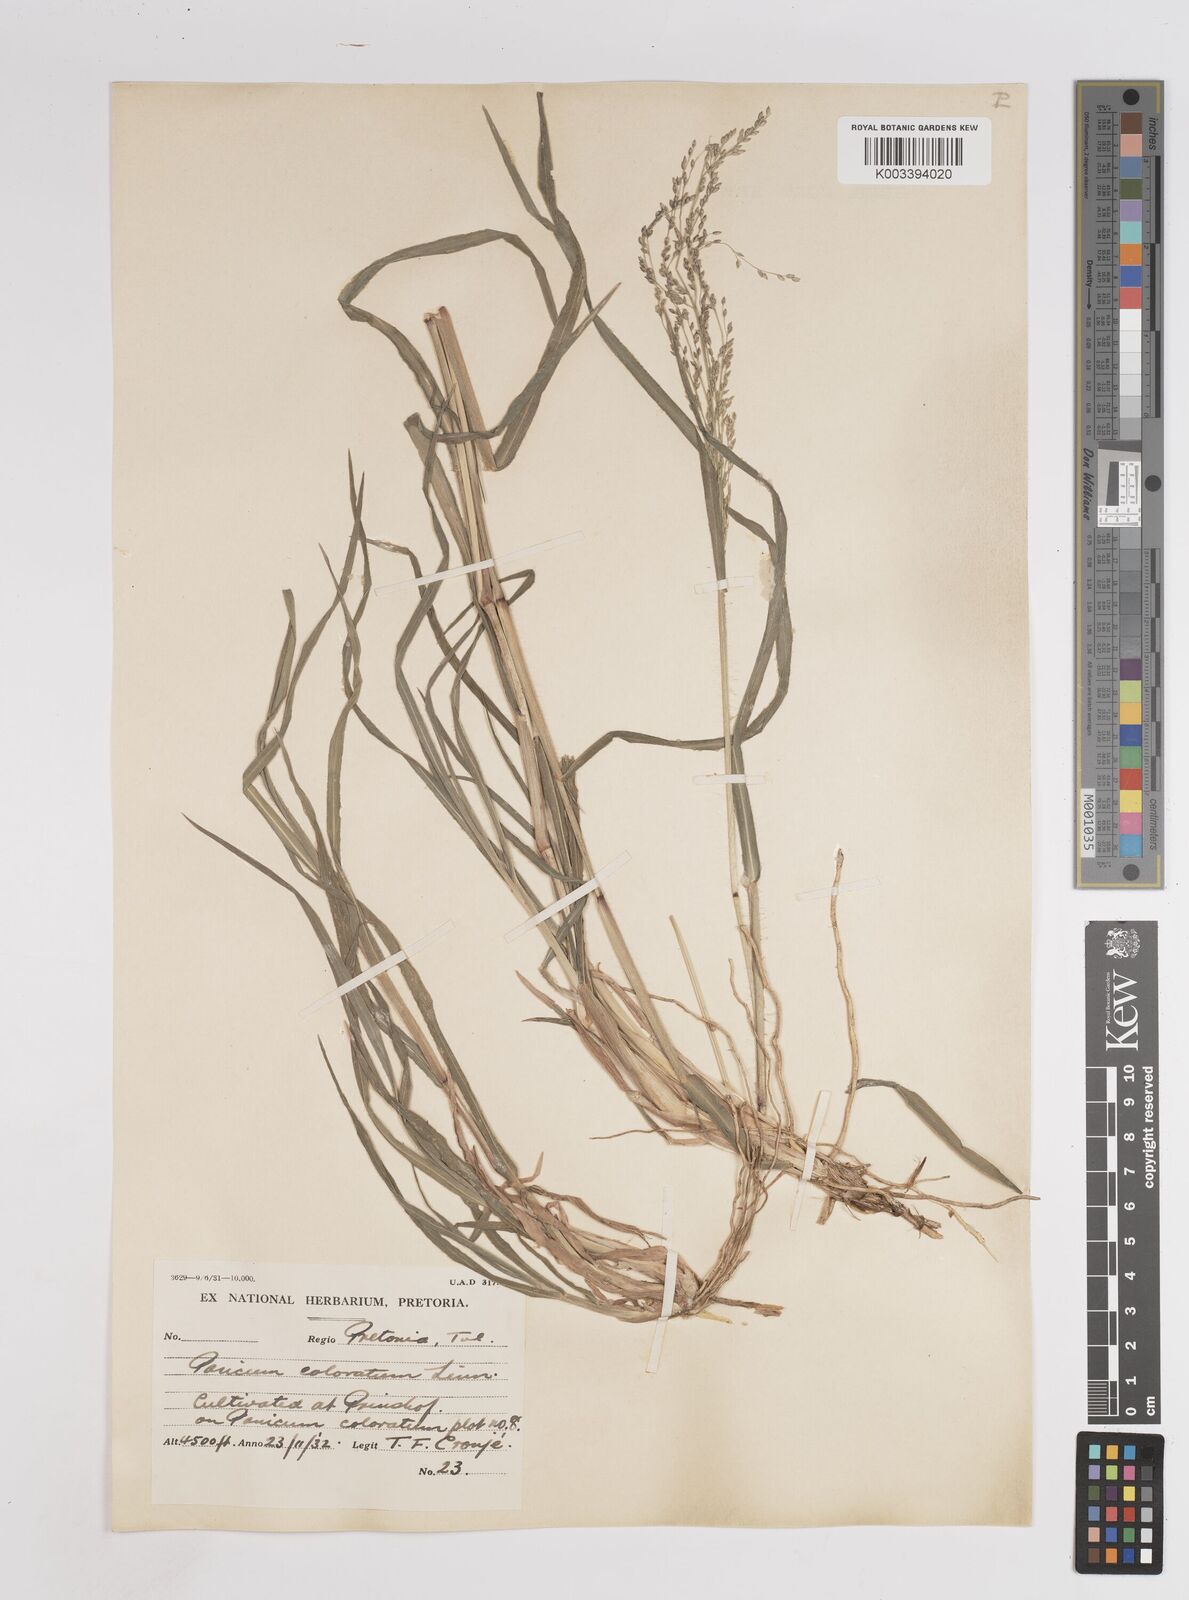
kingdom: Plantae
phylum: Tracheophyta
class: Liliopsida
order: Poales
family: Poaceae
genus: Panicum
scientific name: Panicum coloratum
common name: Kleingrass
